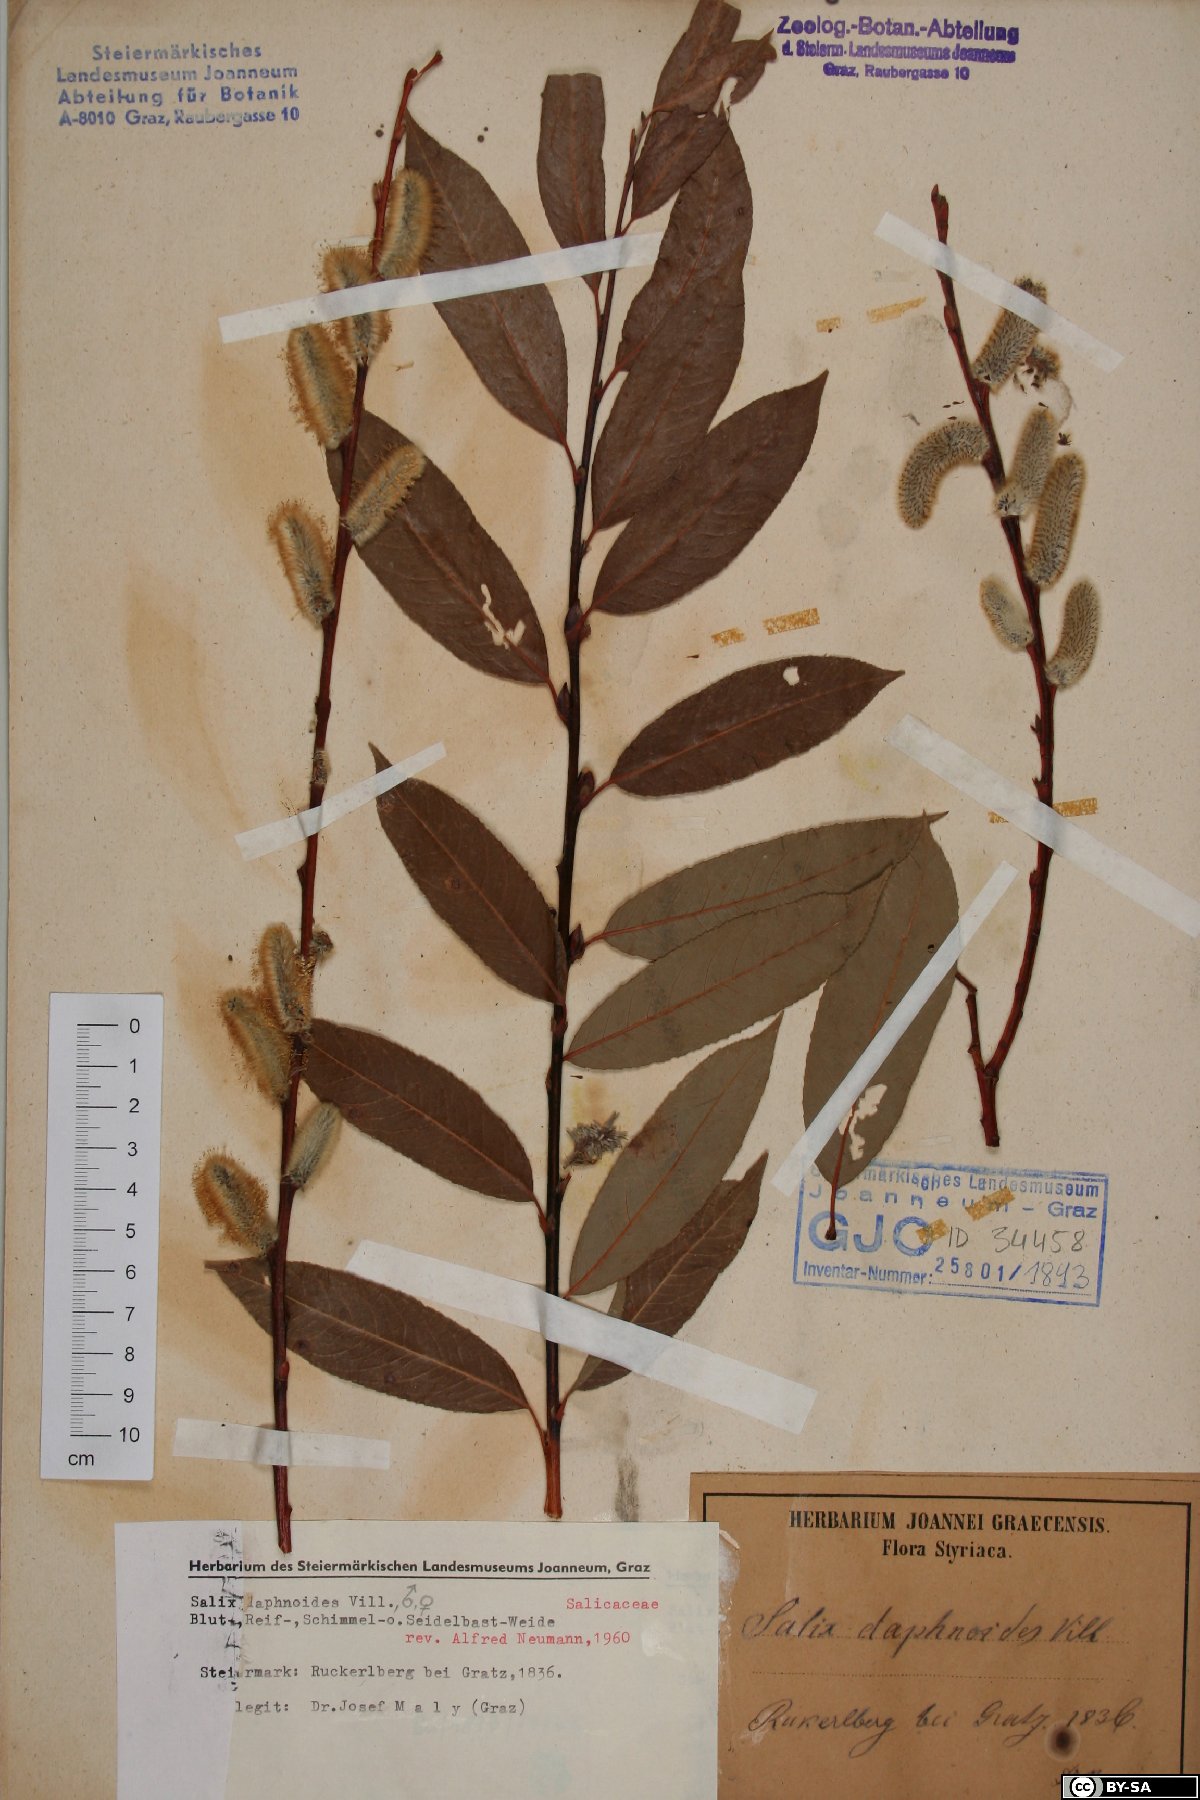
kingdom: Plantae
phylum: Tracheophyta
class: Magnoliopsida
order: Malpighiales
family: Salicaceae
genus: Salix
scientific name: Salix daphnoides
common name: European violet-willow
